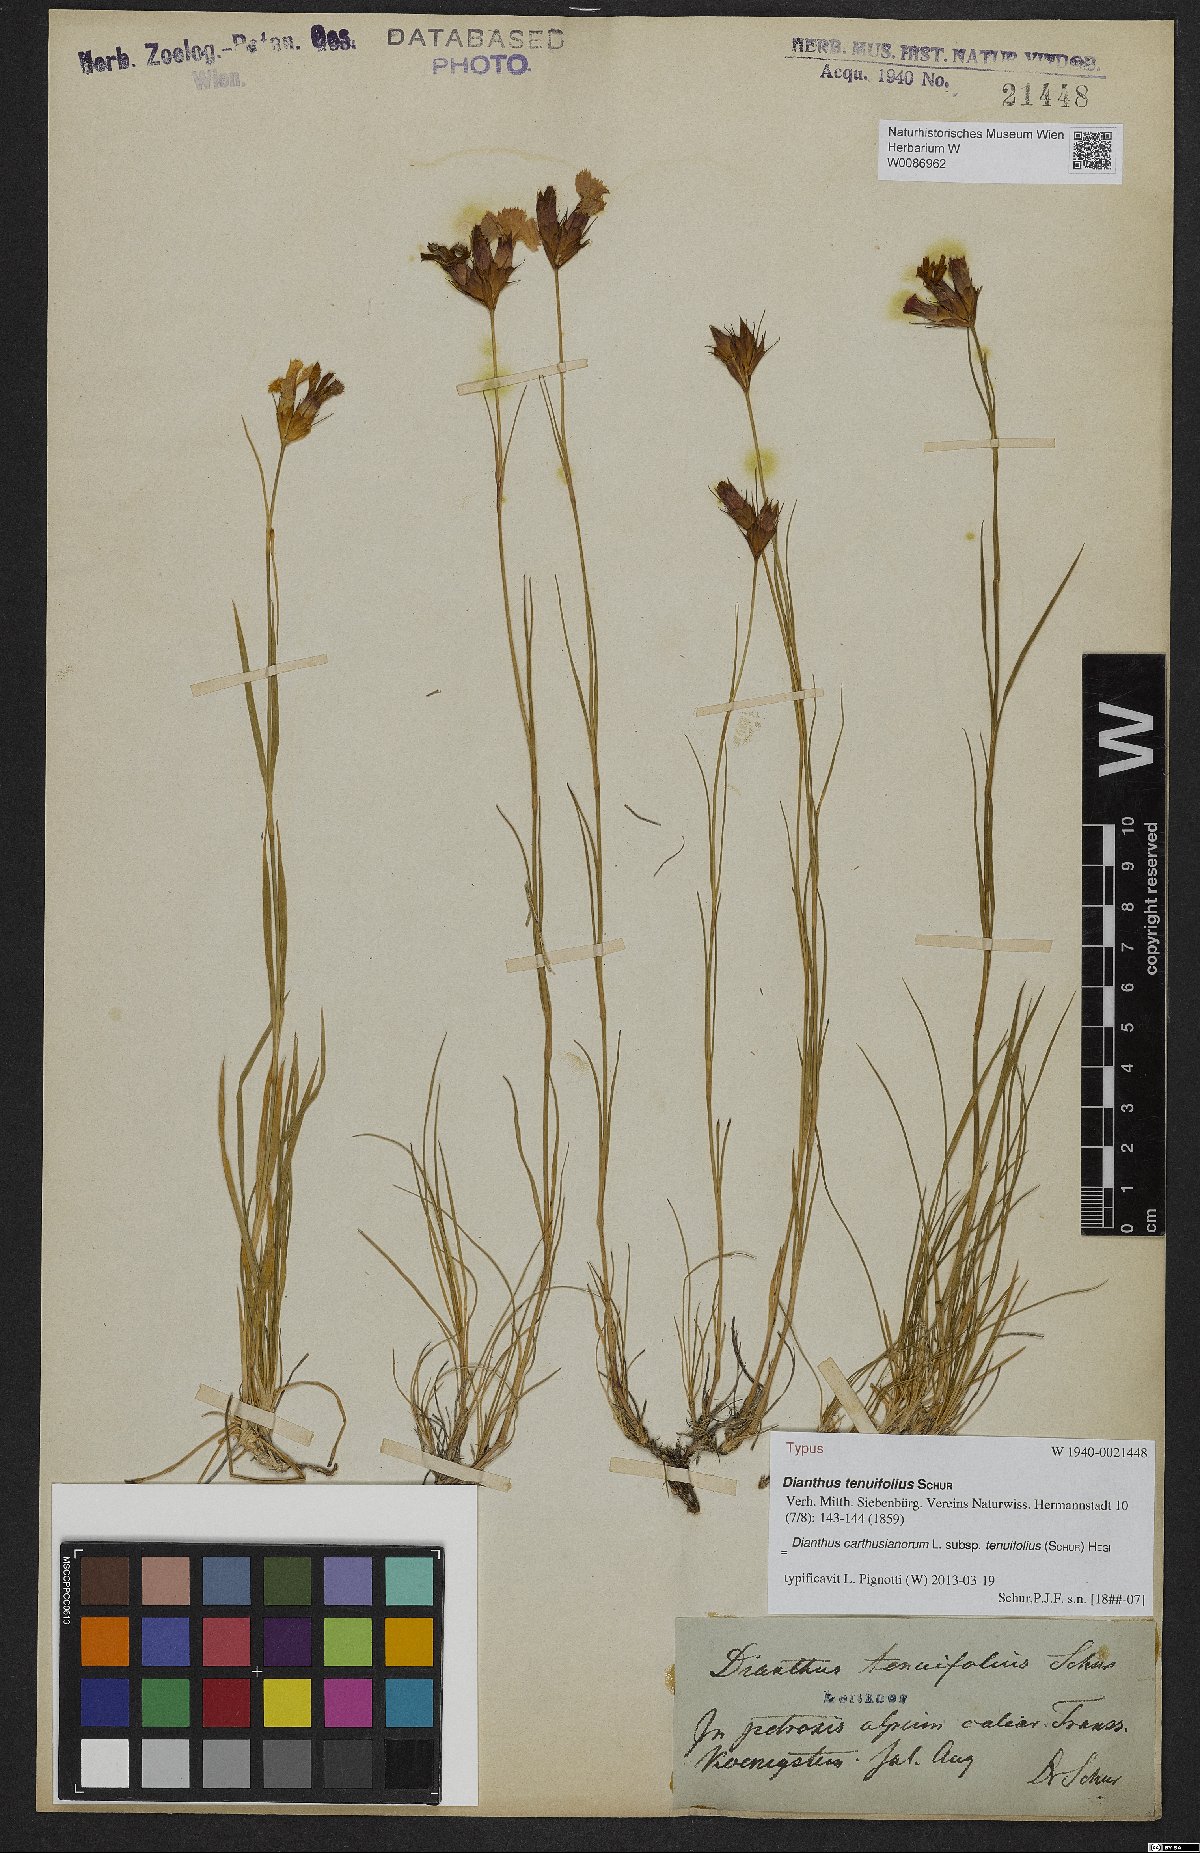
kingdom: Plantae
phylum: Tracheophyta
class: Magnoliopsida
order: Caryophyllales
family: Caryophyllaceae
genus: Dianthus
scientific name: Dianthus carthusianorum
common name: Carthusian pink
